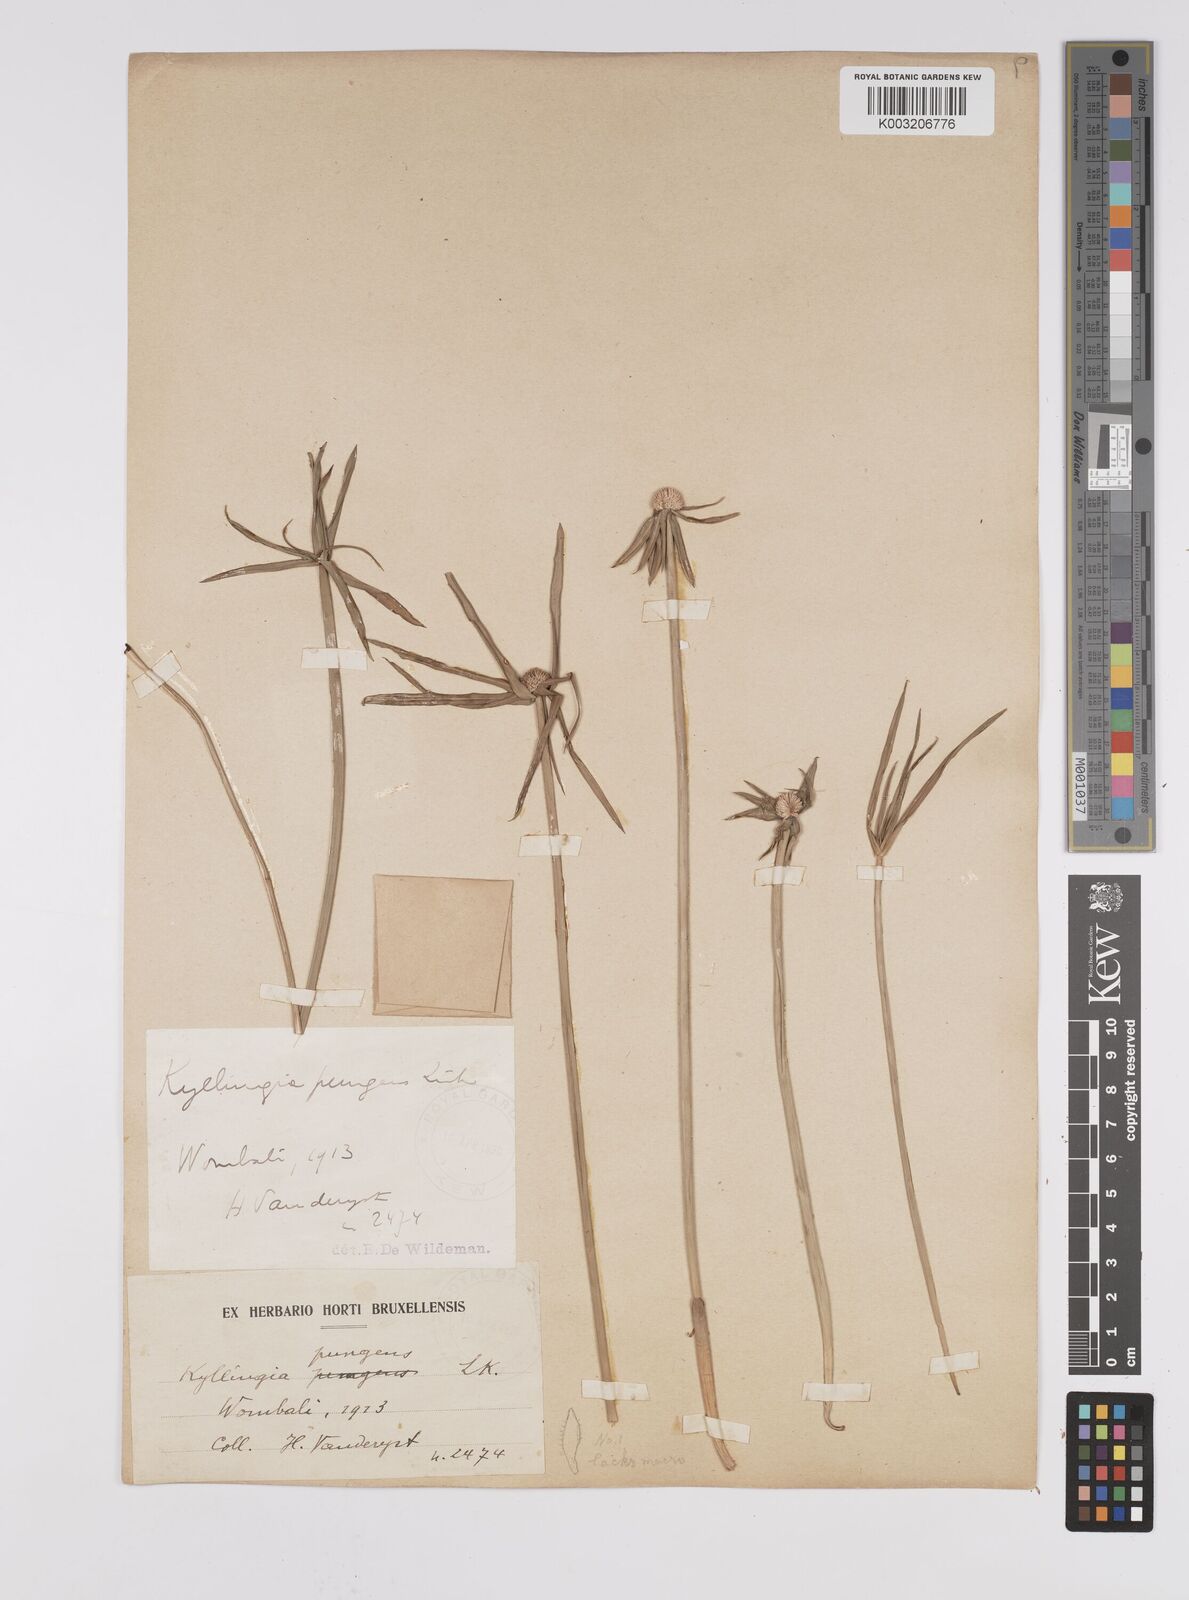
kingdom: Plantae
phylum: Tracheophyta
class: Liliopsida
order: Poales
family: Cyperaceae
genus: Cyperus
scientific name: Cyperus
